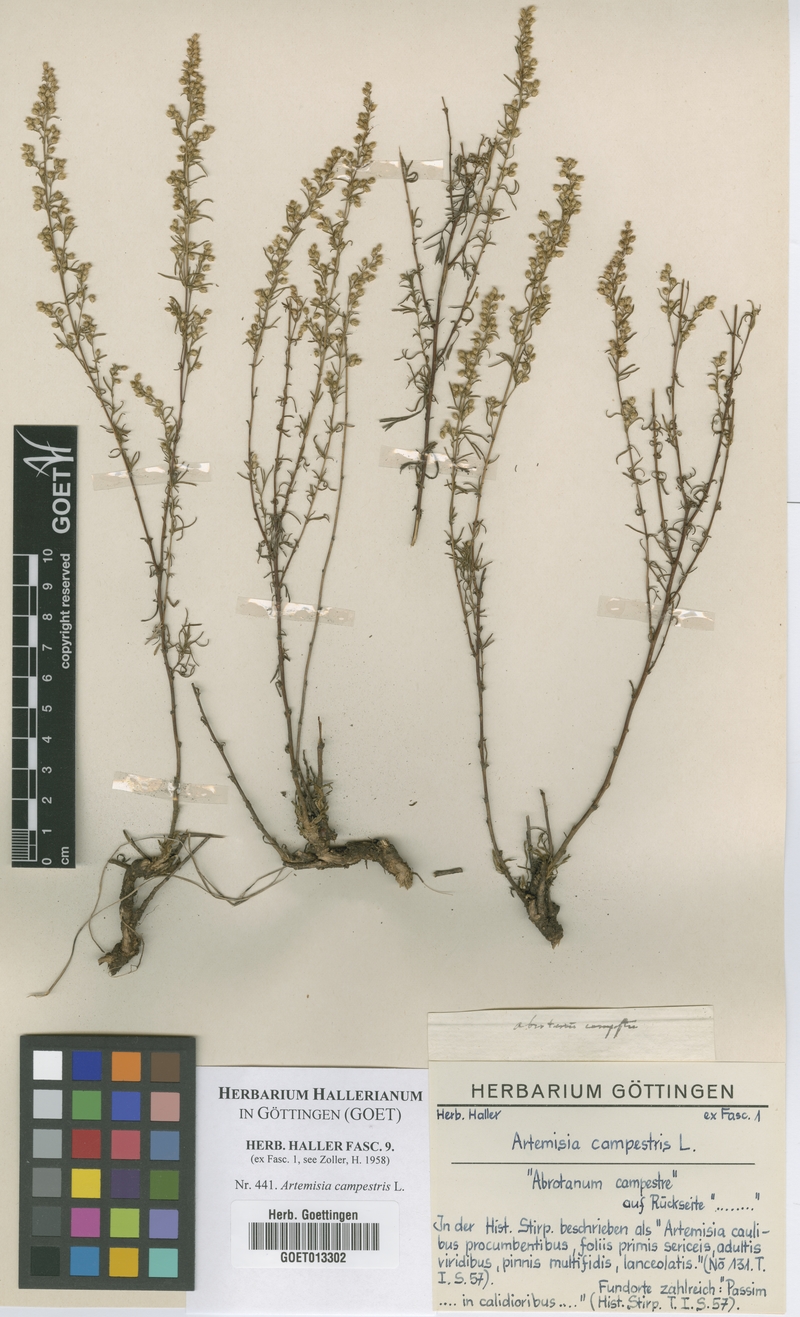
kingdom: Plantae
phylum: Tracheophyta
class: Magnoliopsida
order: Asterales
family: Asteraceae
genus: Artemisia
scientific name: Artemisia campestris
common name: Field wormwood
